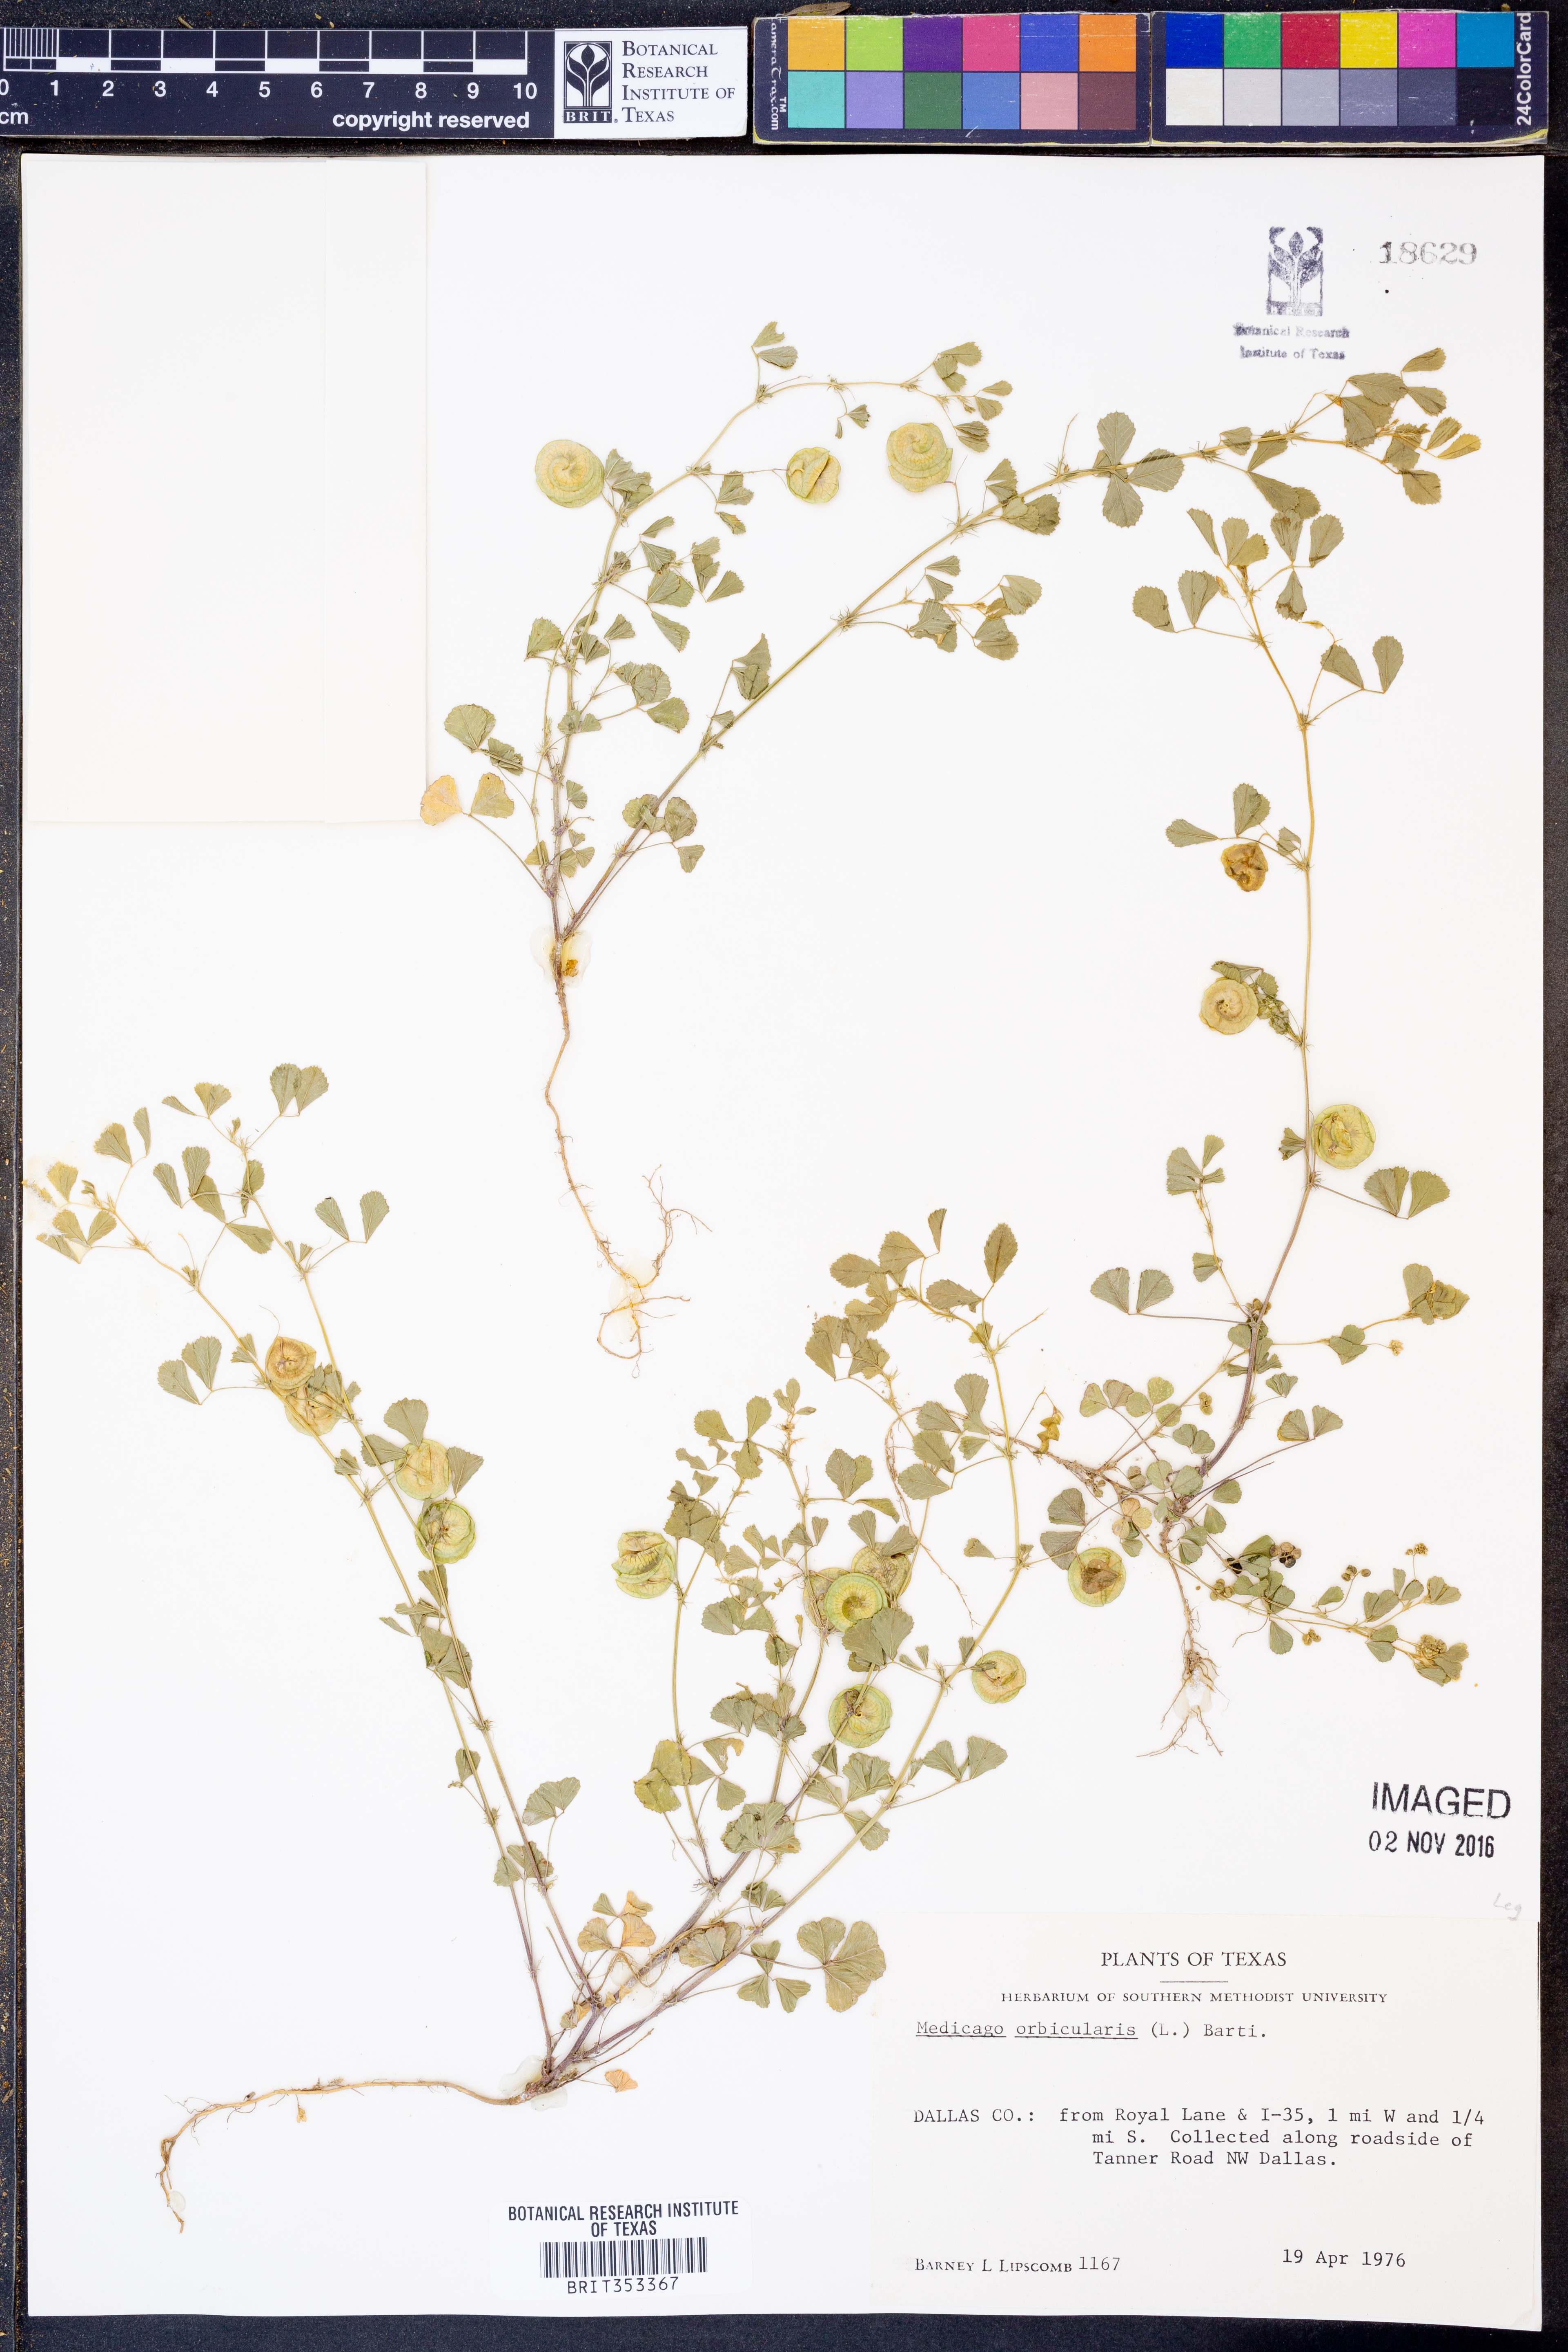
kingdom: Plantae
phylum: Tracheophyta
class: Magnoliopsida
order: Fabales
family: Fabaceae
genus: Medicago
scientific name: Medicago orbicularis
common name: Button medick
